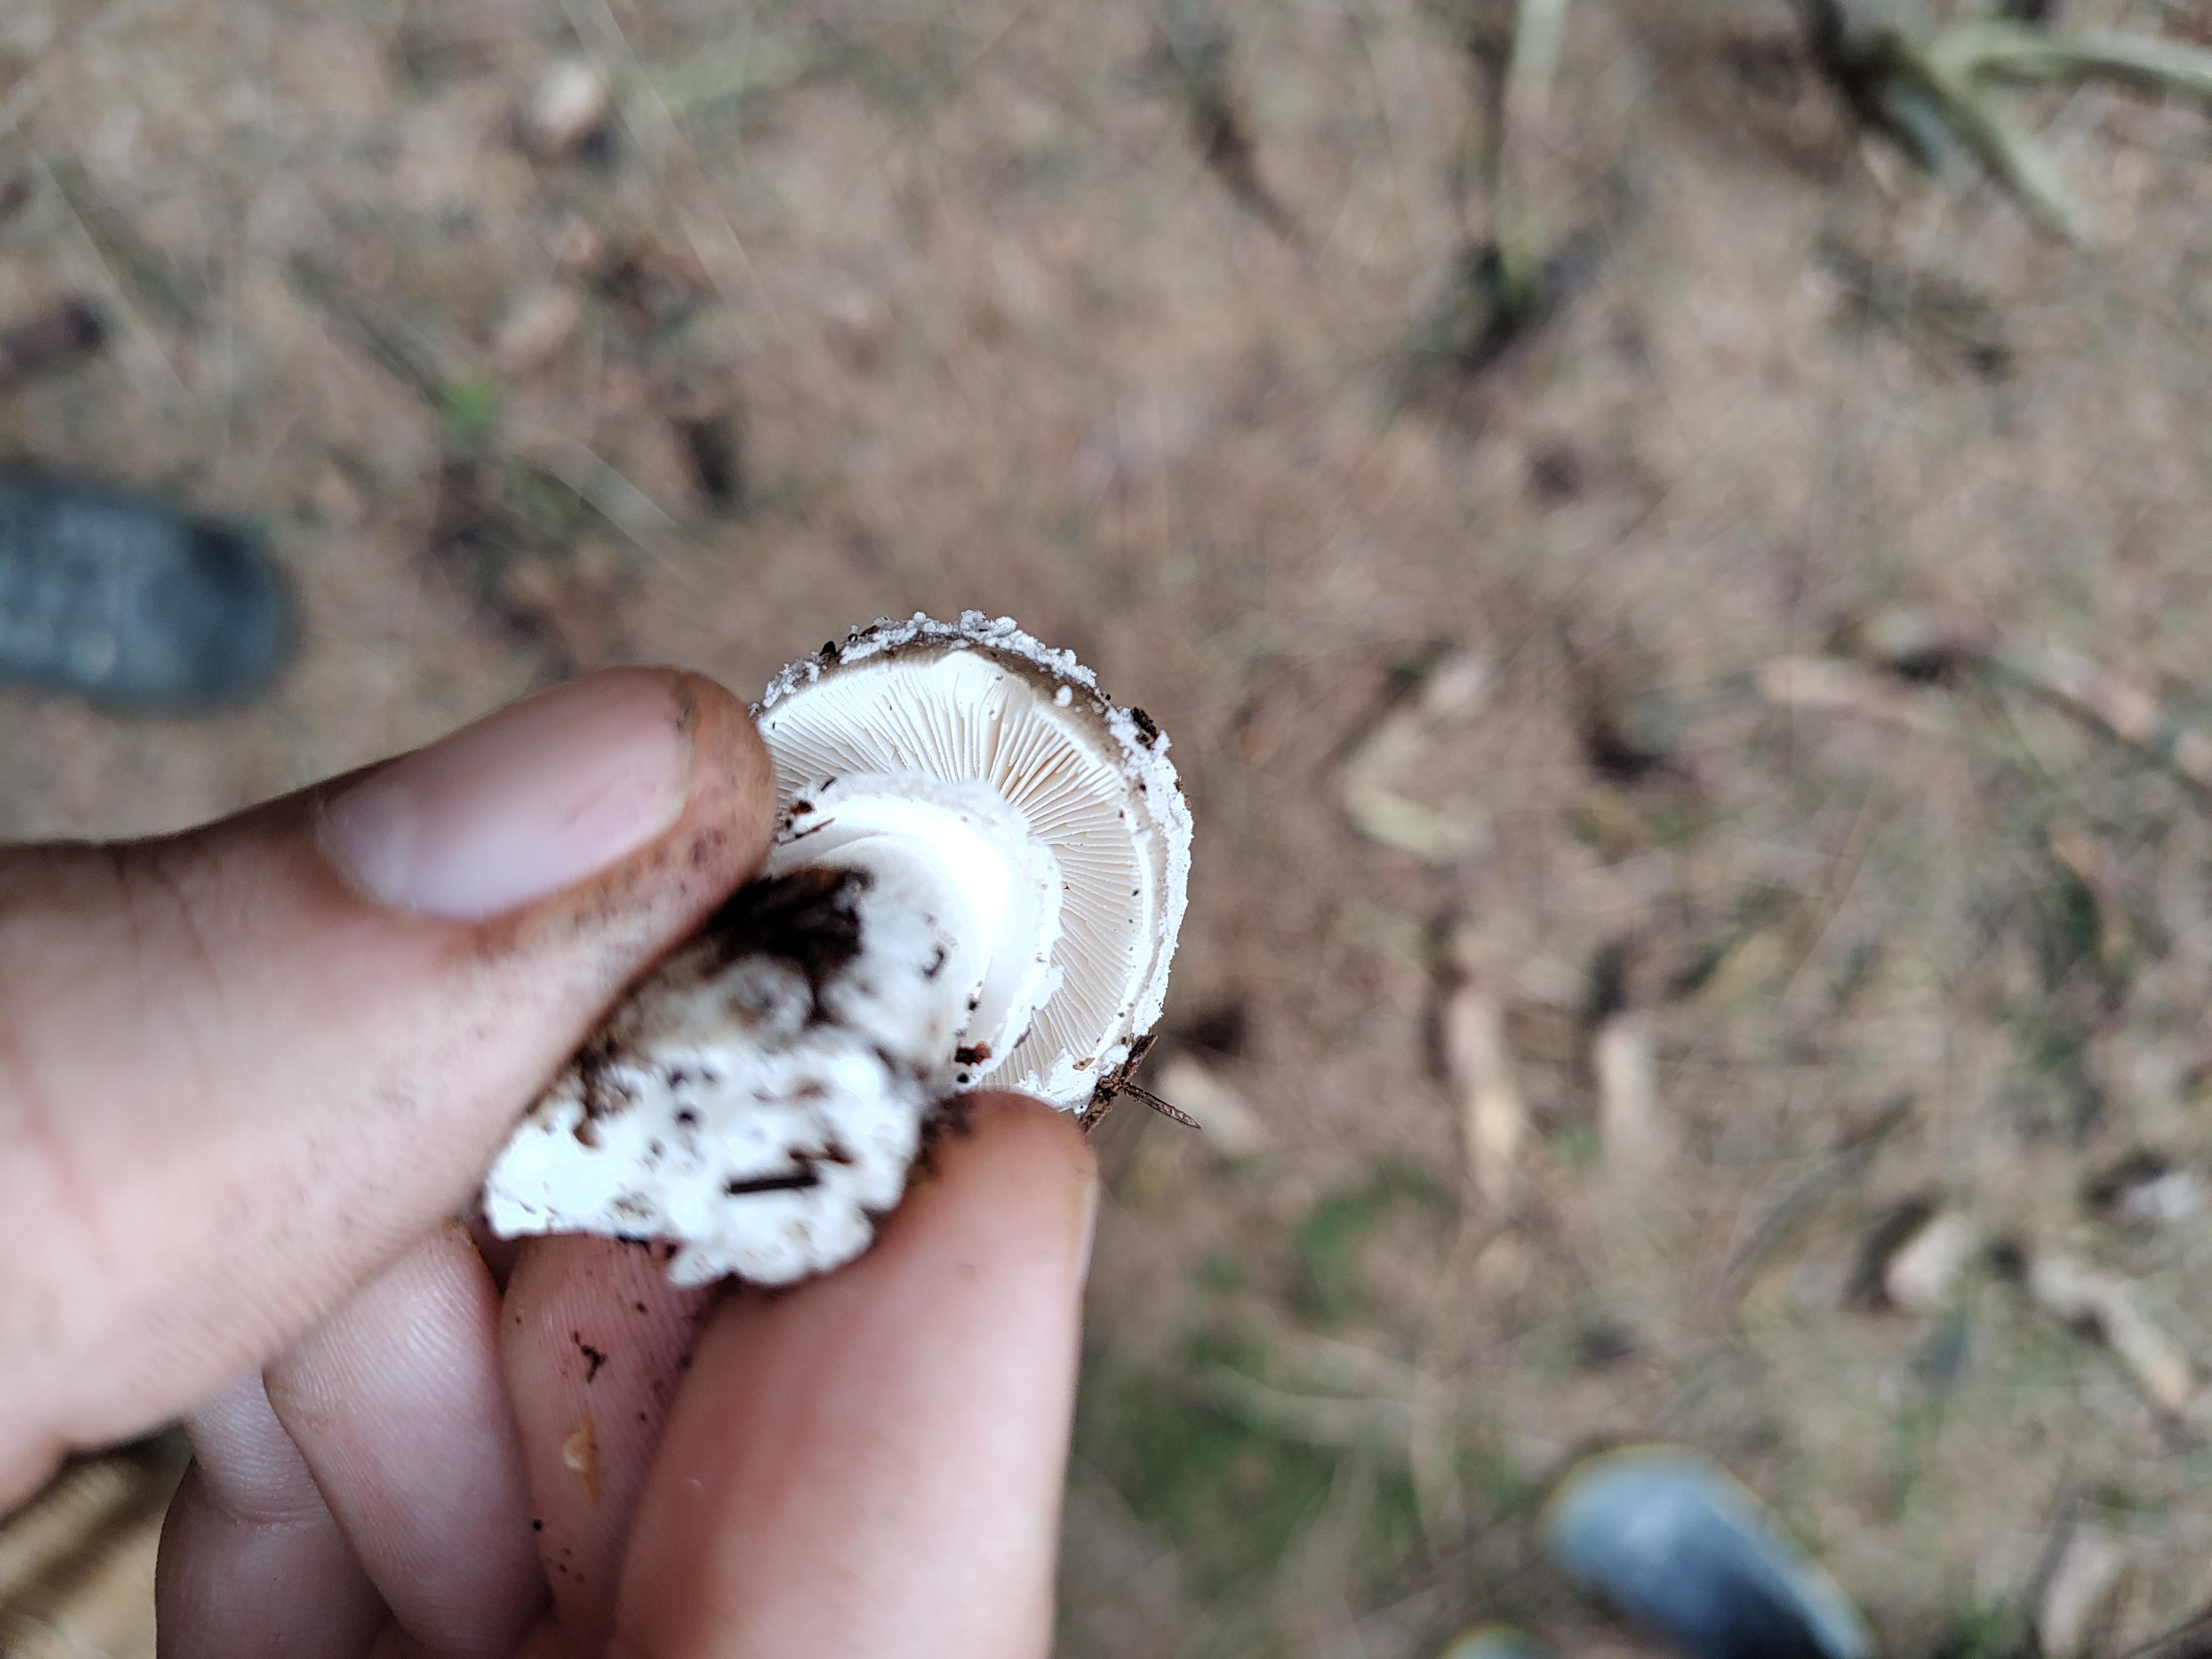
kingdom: Fungi
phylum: Basidiomycota
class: Agaricomycetes
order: Agaricales
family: Amanitaceae
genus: Amanita
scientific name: Amanita
